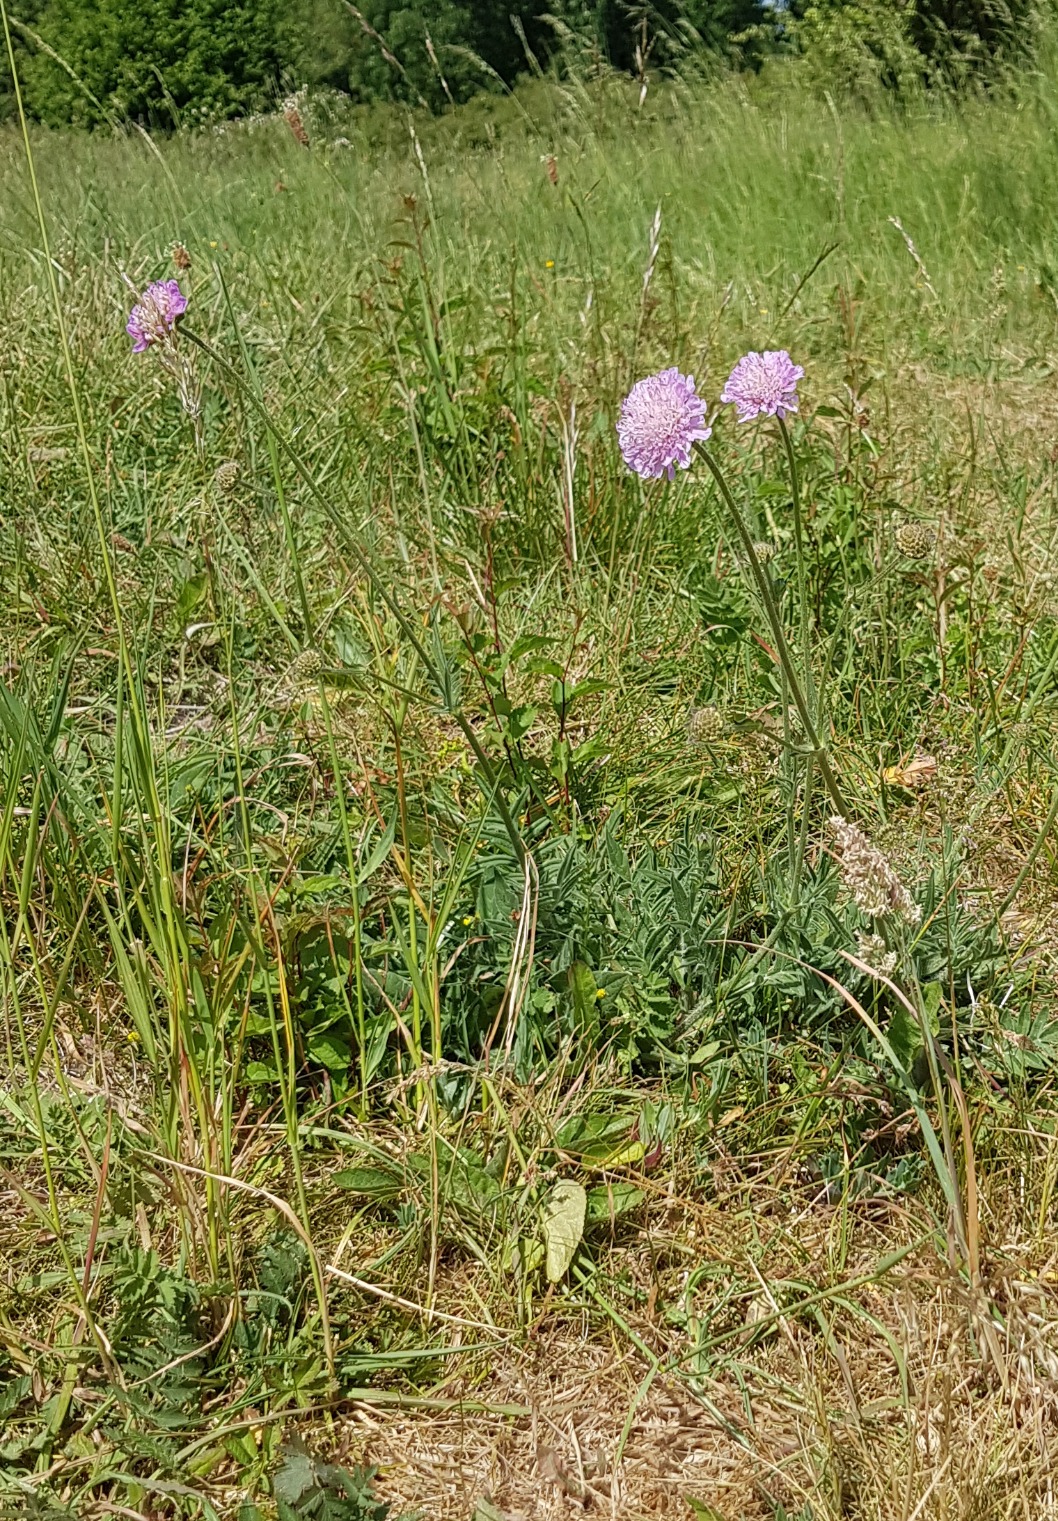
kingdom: Plantae
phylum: Tracheophyta
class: Magnoliopsida
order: Dipsacales
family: Caprifoliaceae
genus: Knautia
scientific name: Knautia arvensis
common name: Blåhat
